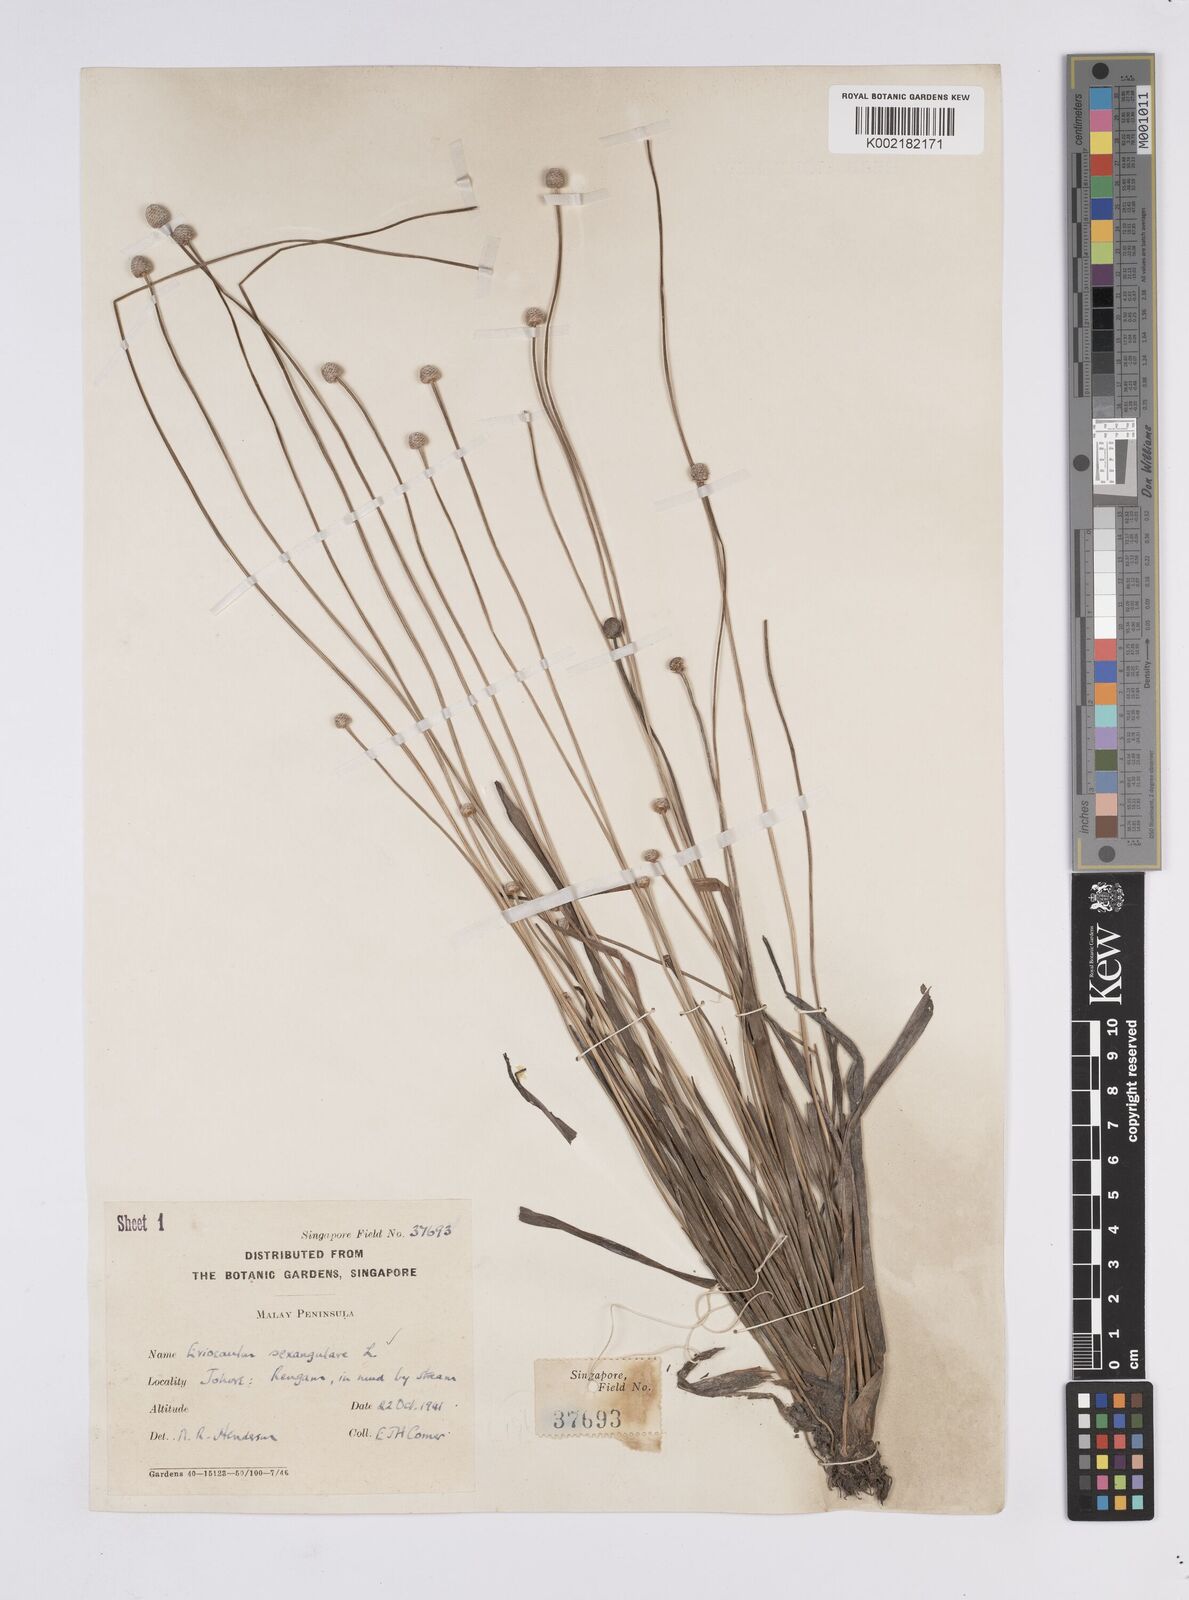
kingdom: Plantae
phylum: Tracheophyta
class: Liliopsida
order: Poales
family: Eriocaulaceae
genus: Eriocaulon
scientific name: Eriocaulon sexangulare
